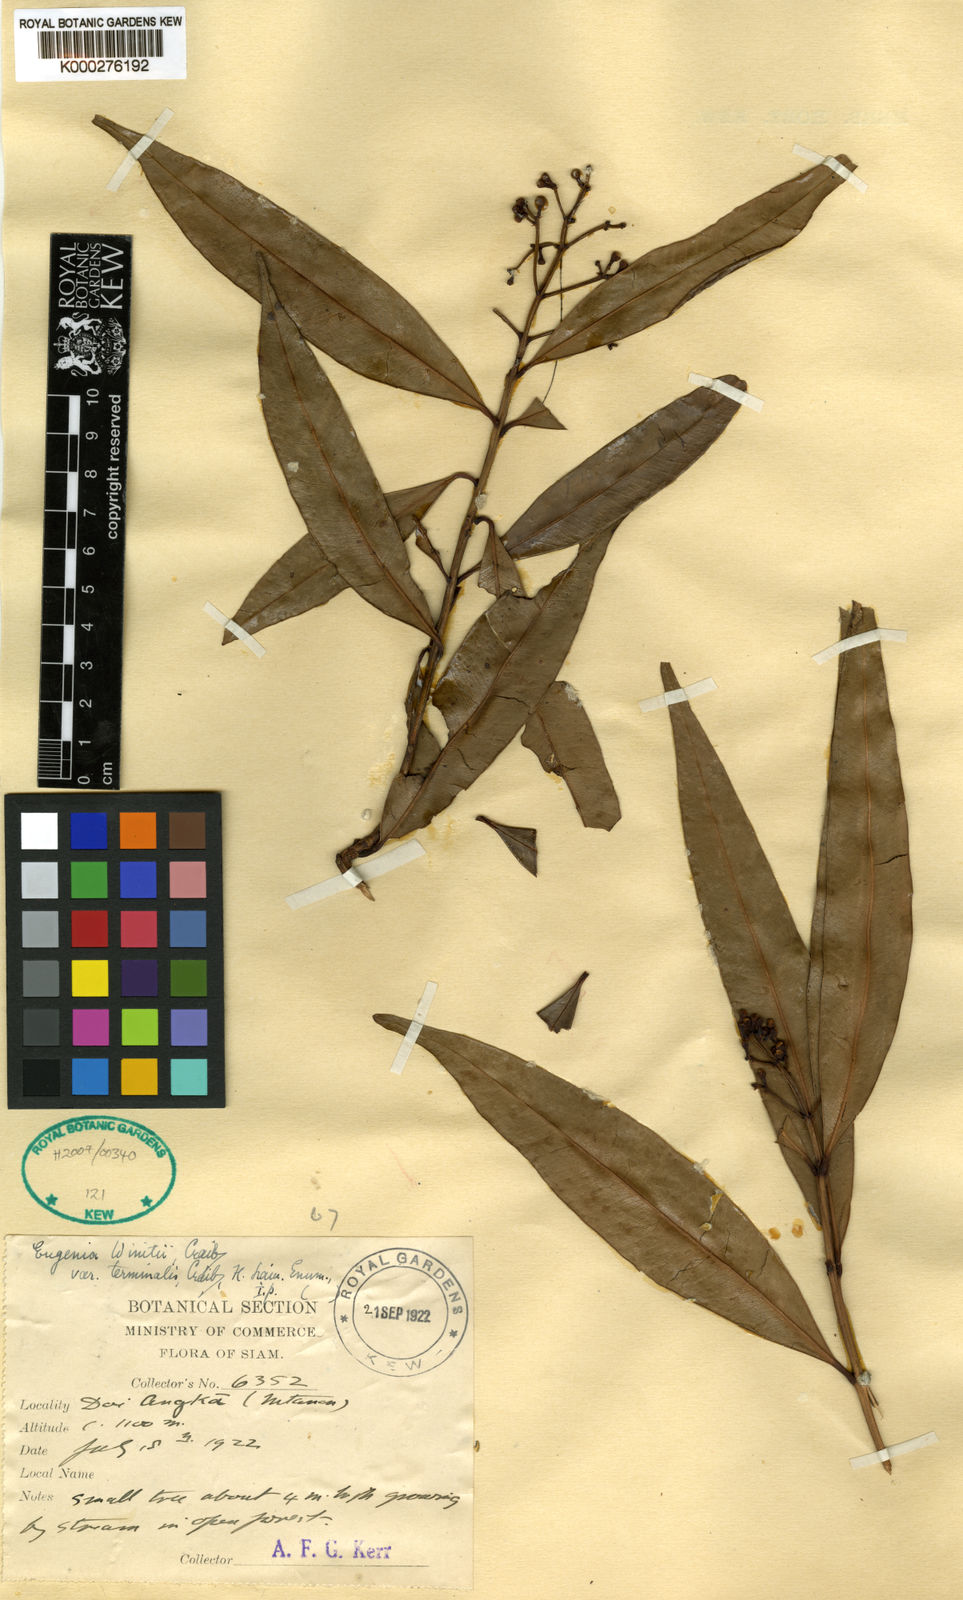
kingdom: Plantae
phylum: Tracheophyta
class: Magnoliopsida
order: Myrtales
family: Myrtaceae
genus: Syzygium
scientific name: Syzygium winitii
